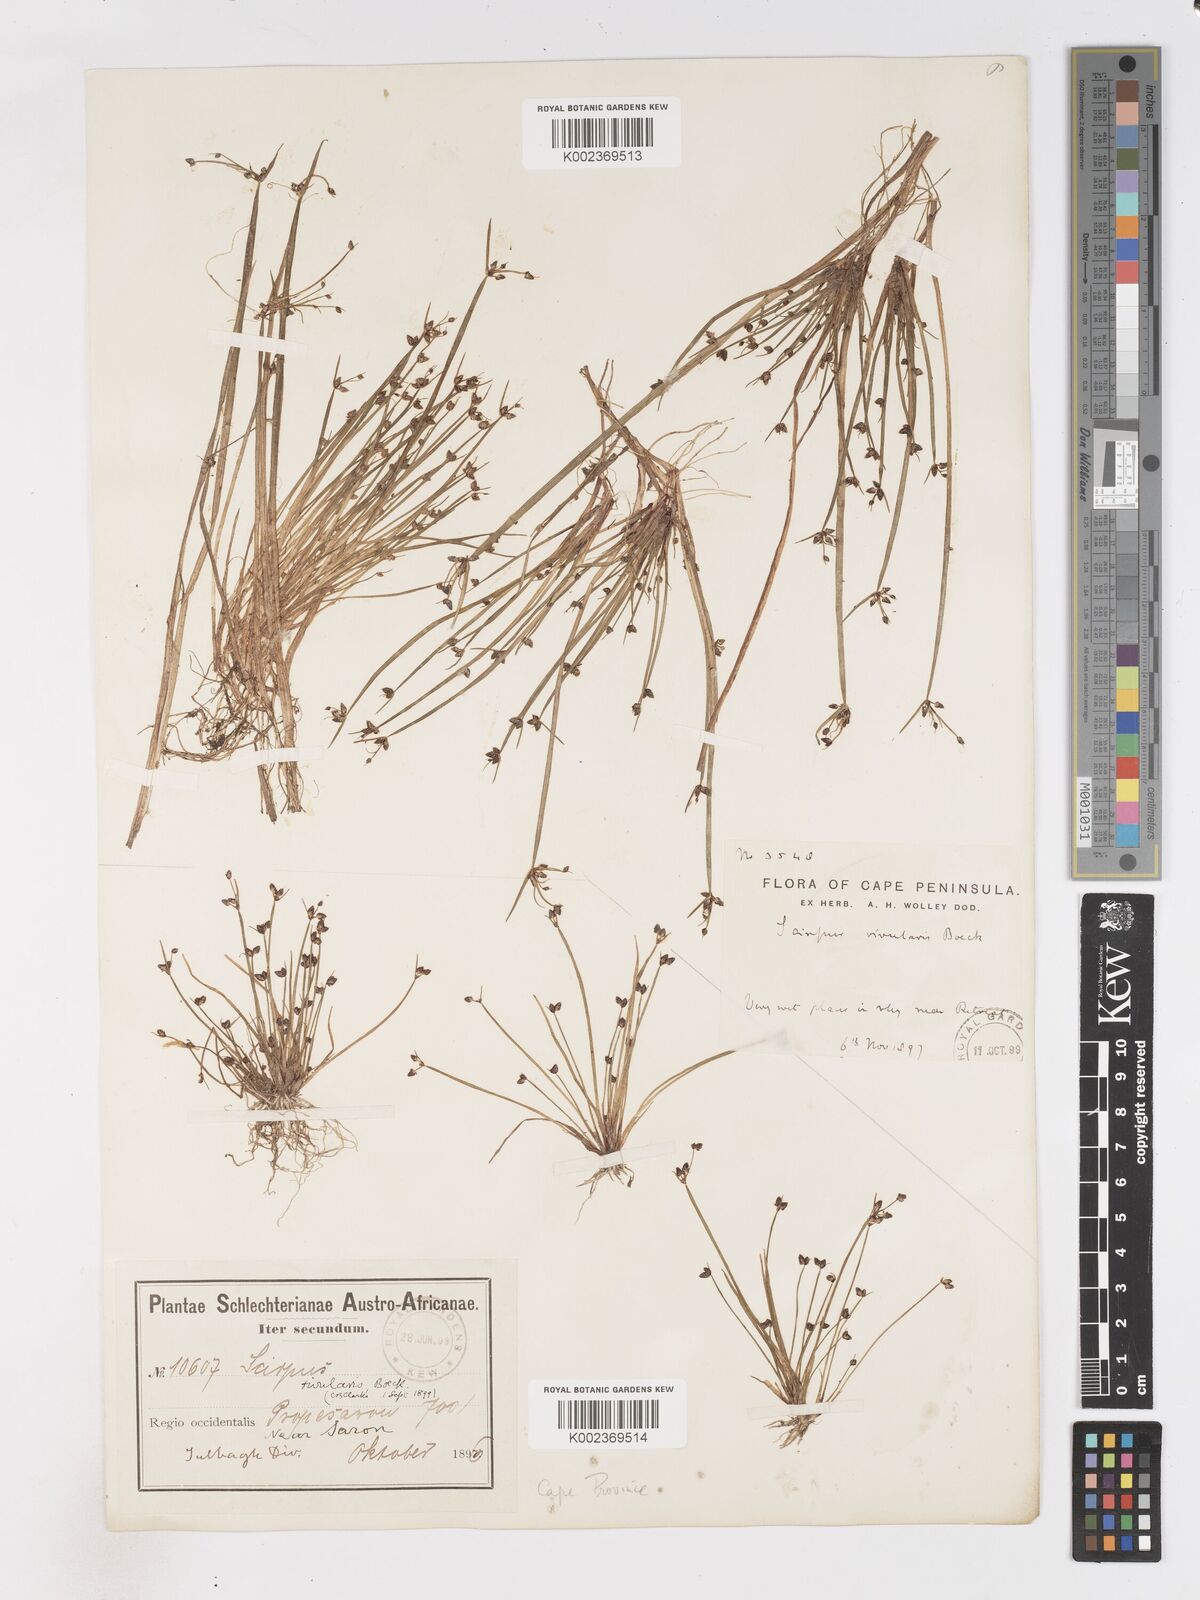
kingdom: Plantae
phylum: Tracheophyta
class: Liliopsida
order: Poales
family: Cyperaceae
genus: Isolepis
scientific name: Isolepis natans
